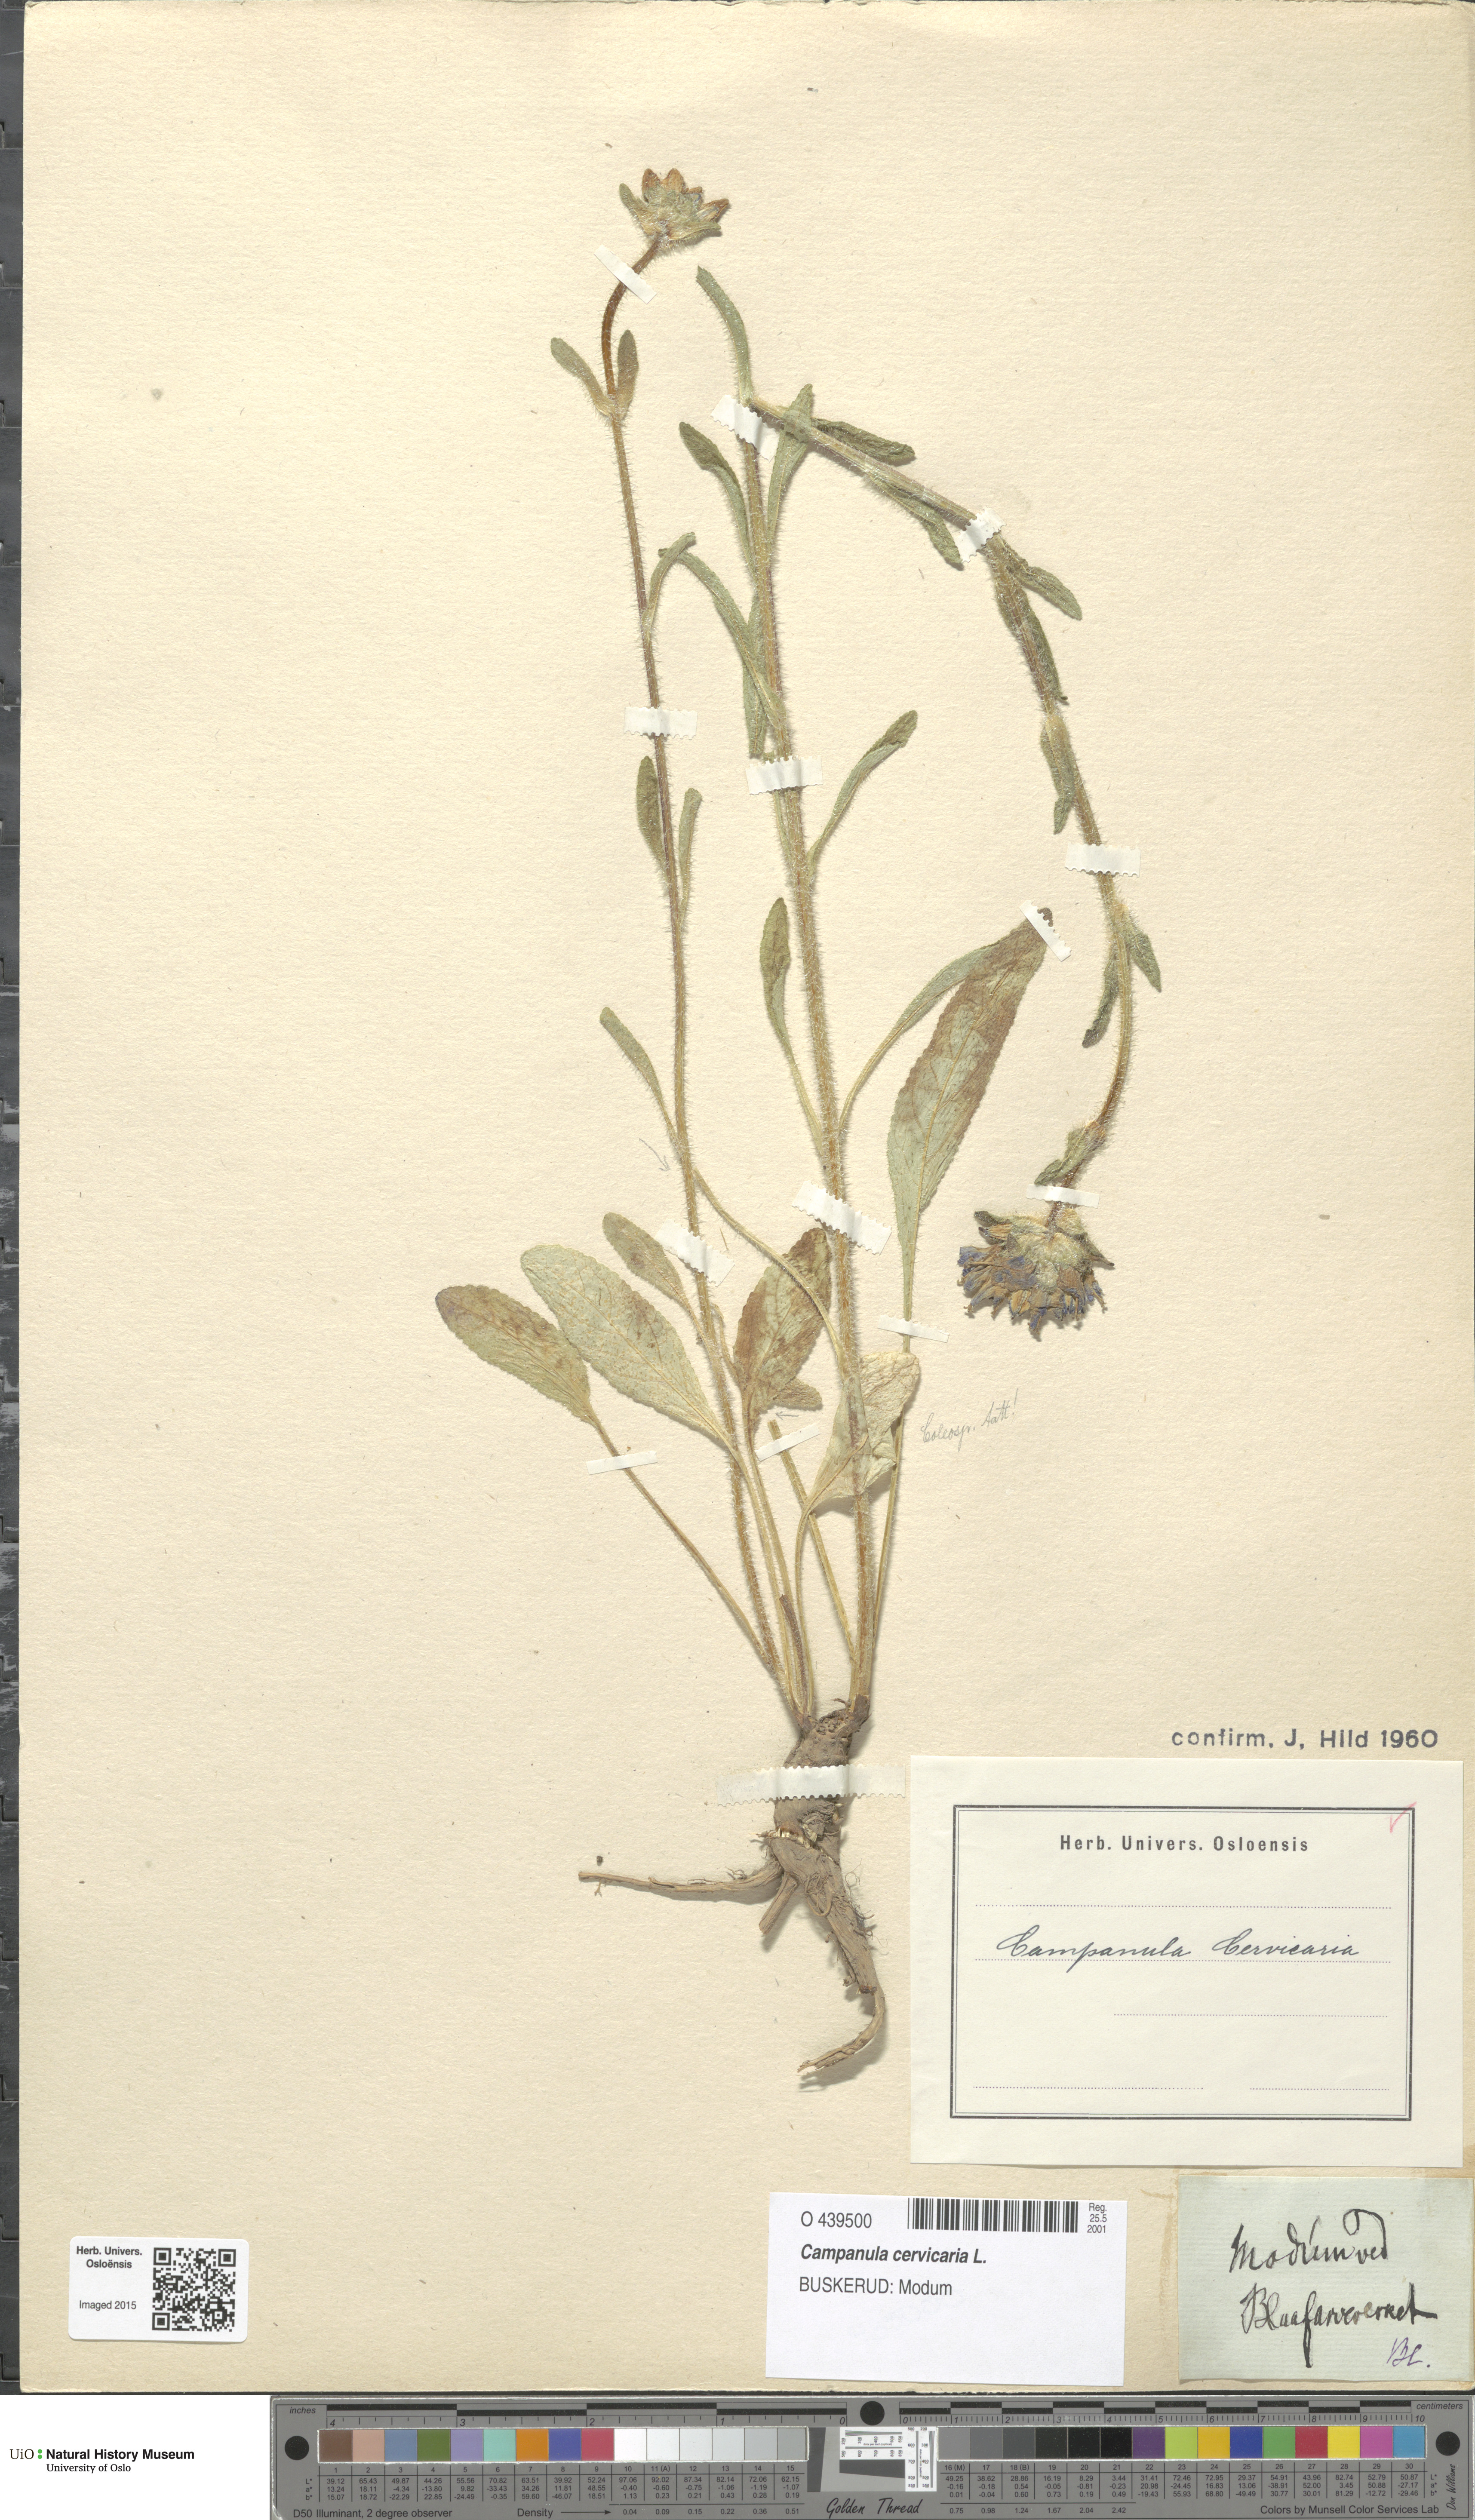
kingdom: Plantae
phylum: Tracheophyta
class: Magnoliopsida
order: Asterales
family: Campanulaceae
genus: Campanula
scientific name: Campanula cervicaria
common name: Bristly bellflower
